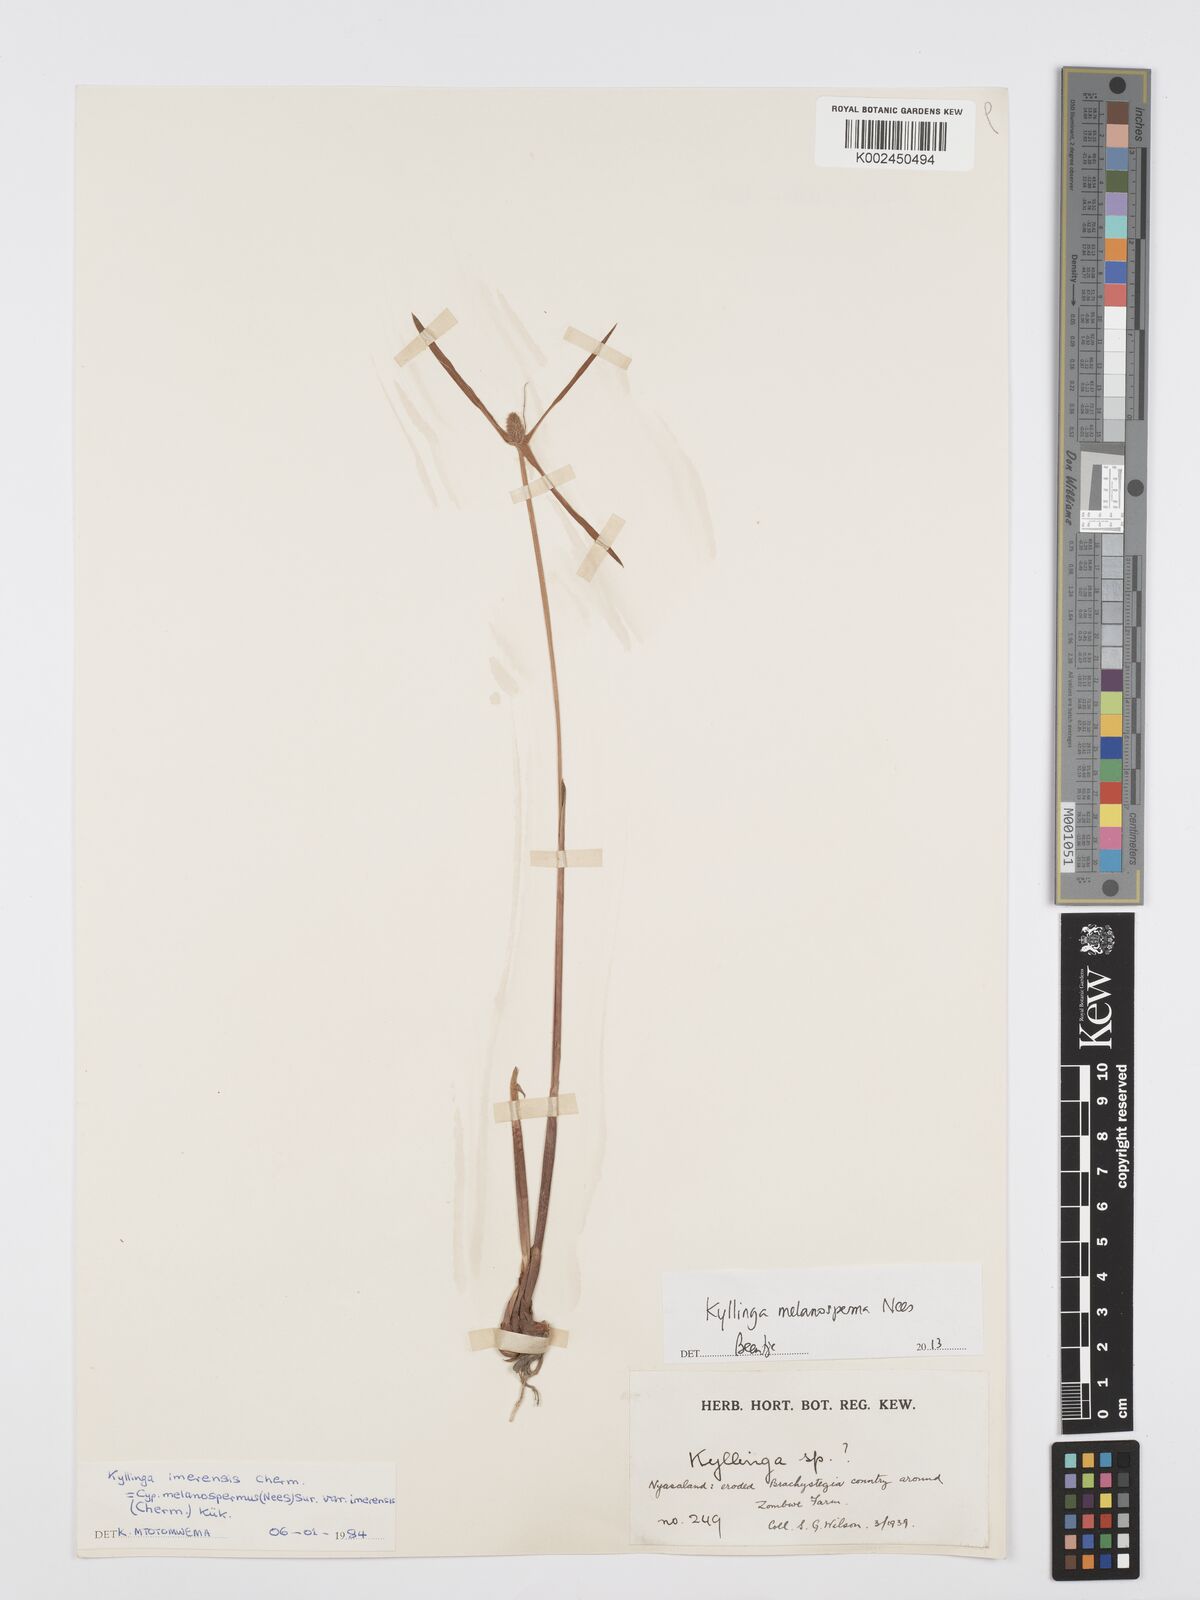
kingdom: Plantae
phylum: Tracheophyta
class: Liliopsida
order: Poales
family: Cyperaceae
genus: Cyperus
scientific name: Cyperus melanospermus
